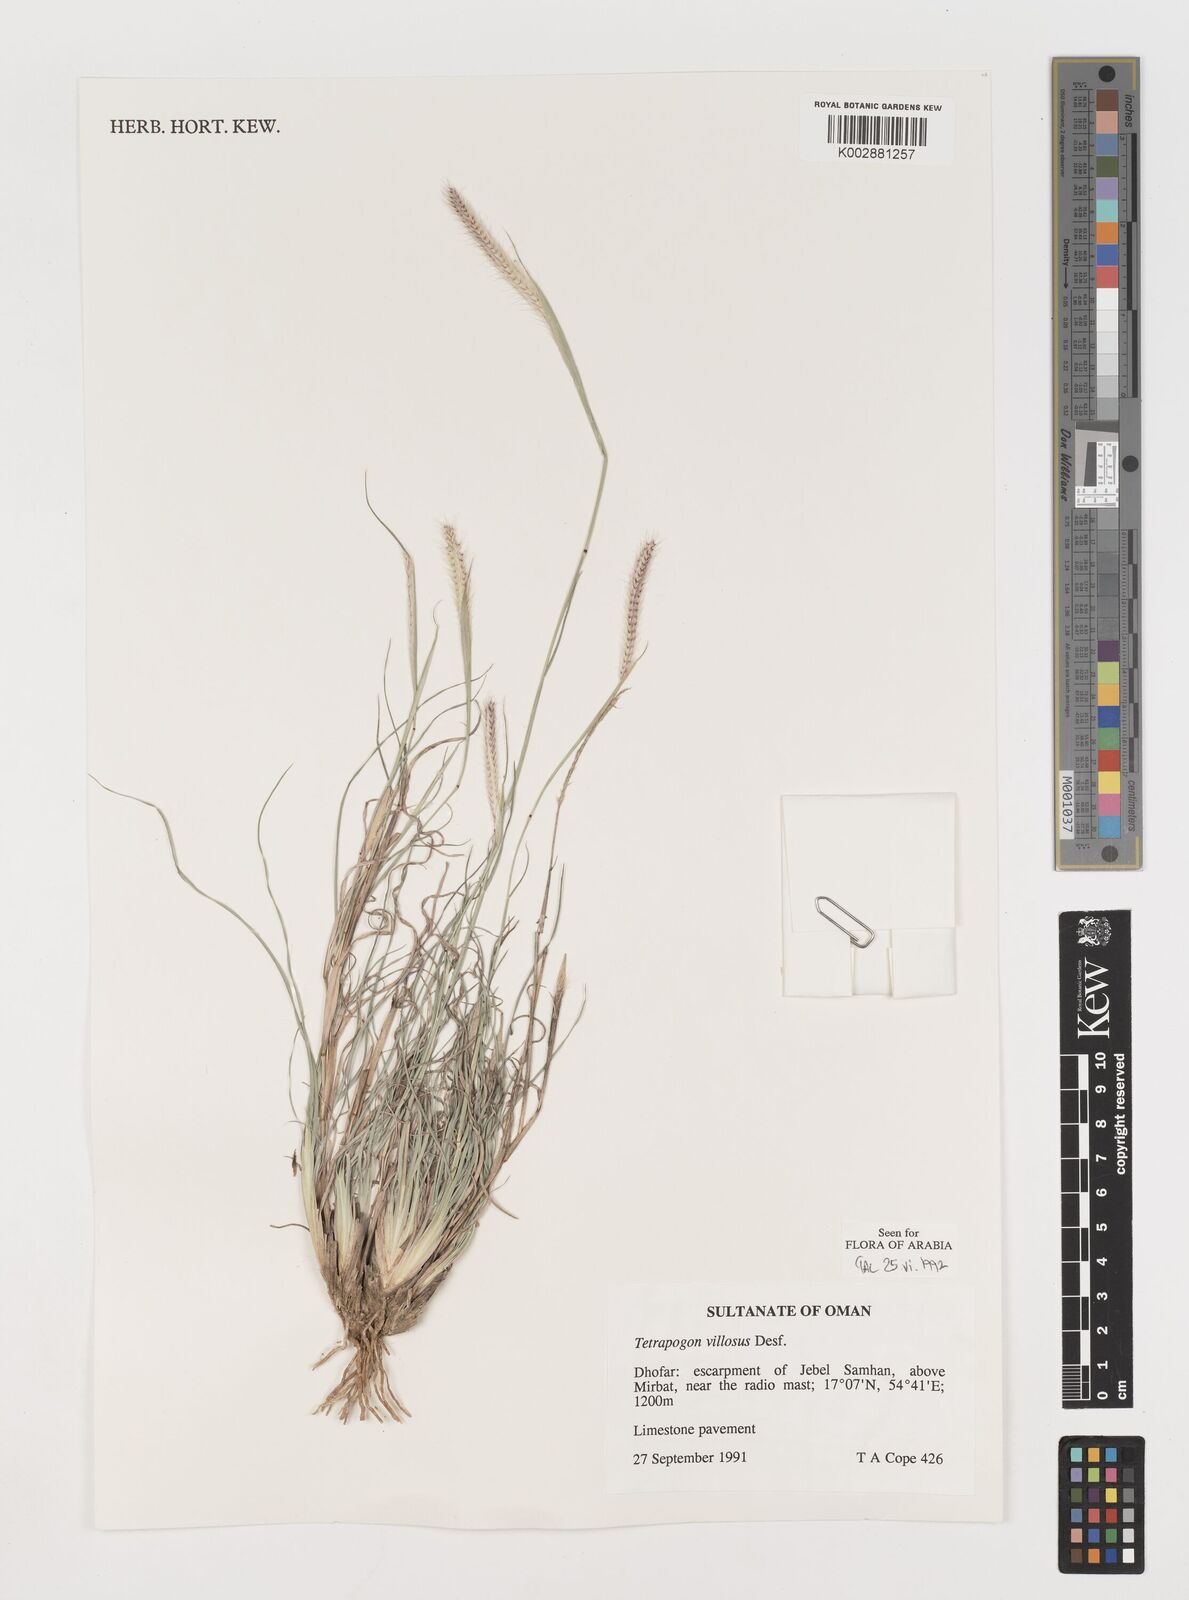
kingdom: Plantae
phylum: Tracheophyta
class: Liliopsida
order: Poales
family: Poaceae
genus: Tetrapogon
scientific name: Tetrapogon villosus
